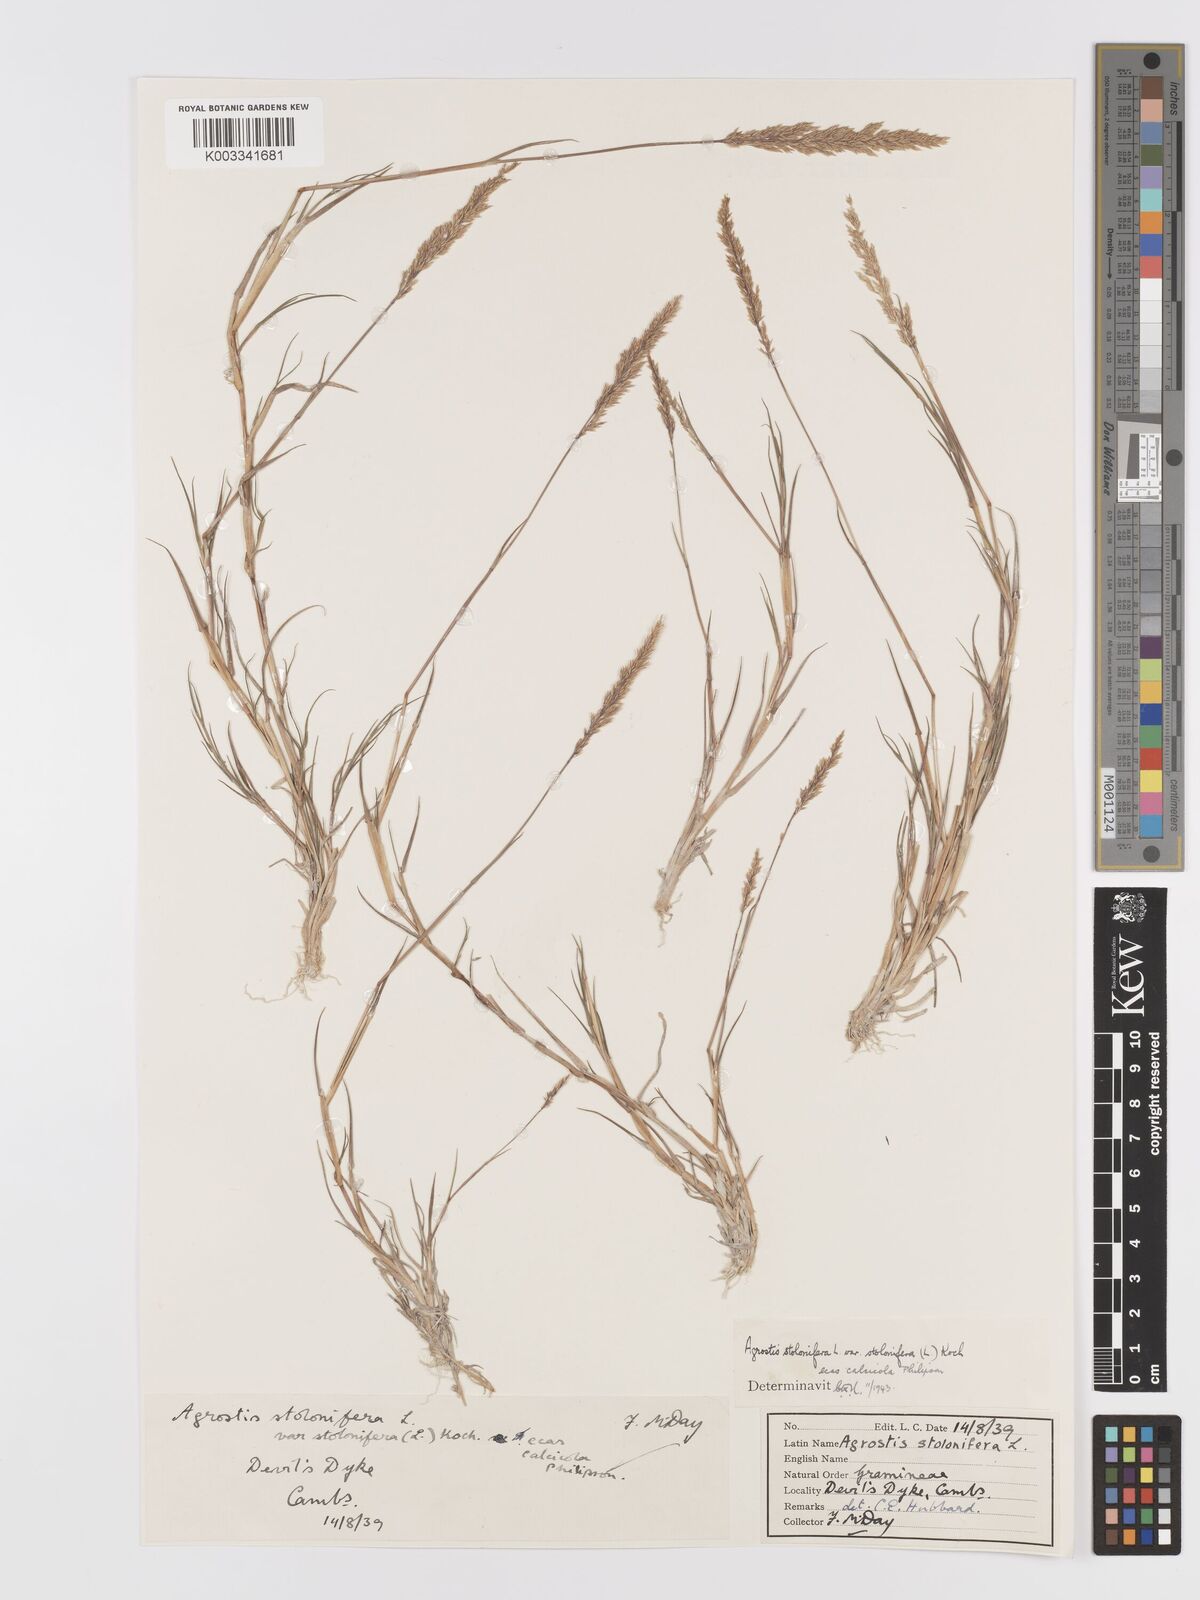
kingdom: Plantae
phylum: Tracheophyta
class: Liliopsida
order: Poales
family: Poaceae
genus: Agrostis
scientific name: Agrostis stolonifera
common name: Creeping bentgrass
